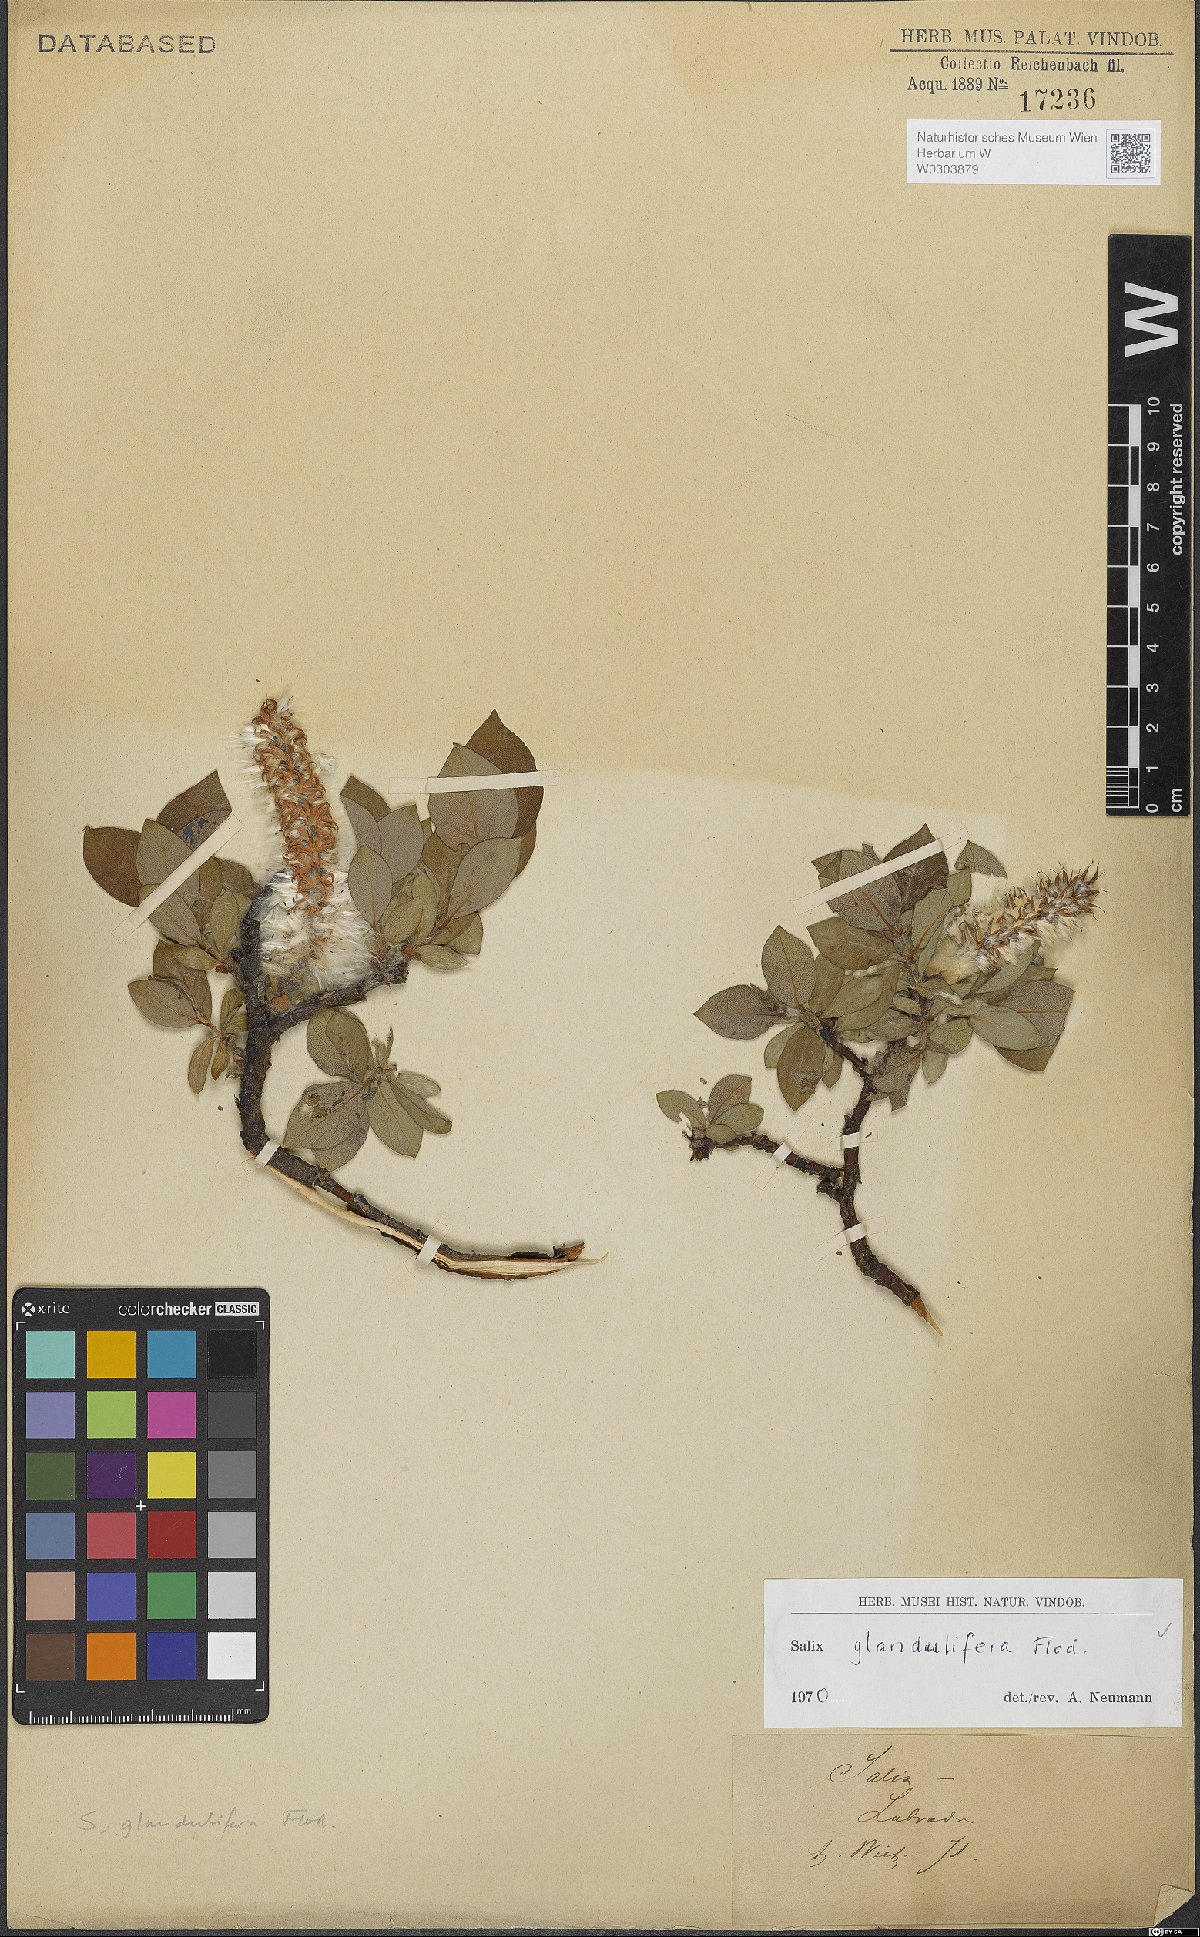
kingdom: Plantae
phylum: Tracheophyta
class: Magnoliopsida
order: Malpighiales
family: Salicaceae
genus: Salix
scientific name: Salix lanata
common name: Woolly willow
